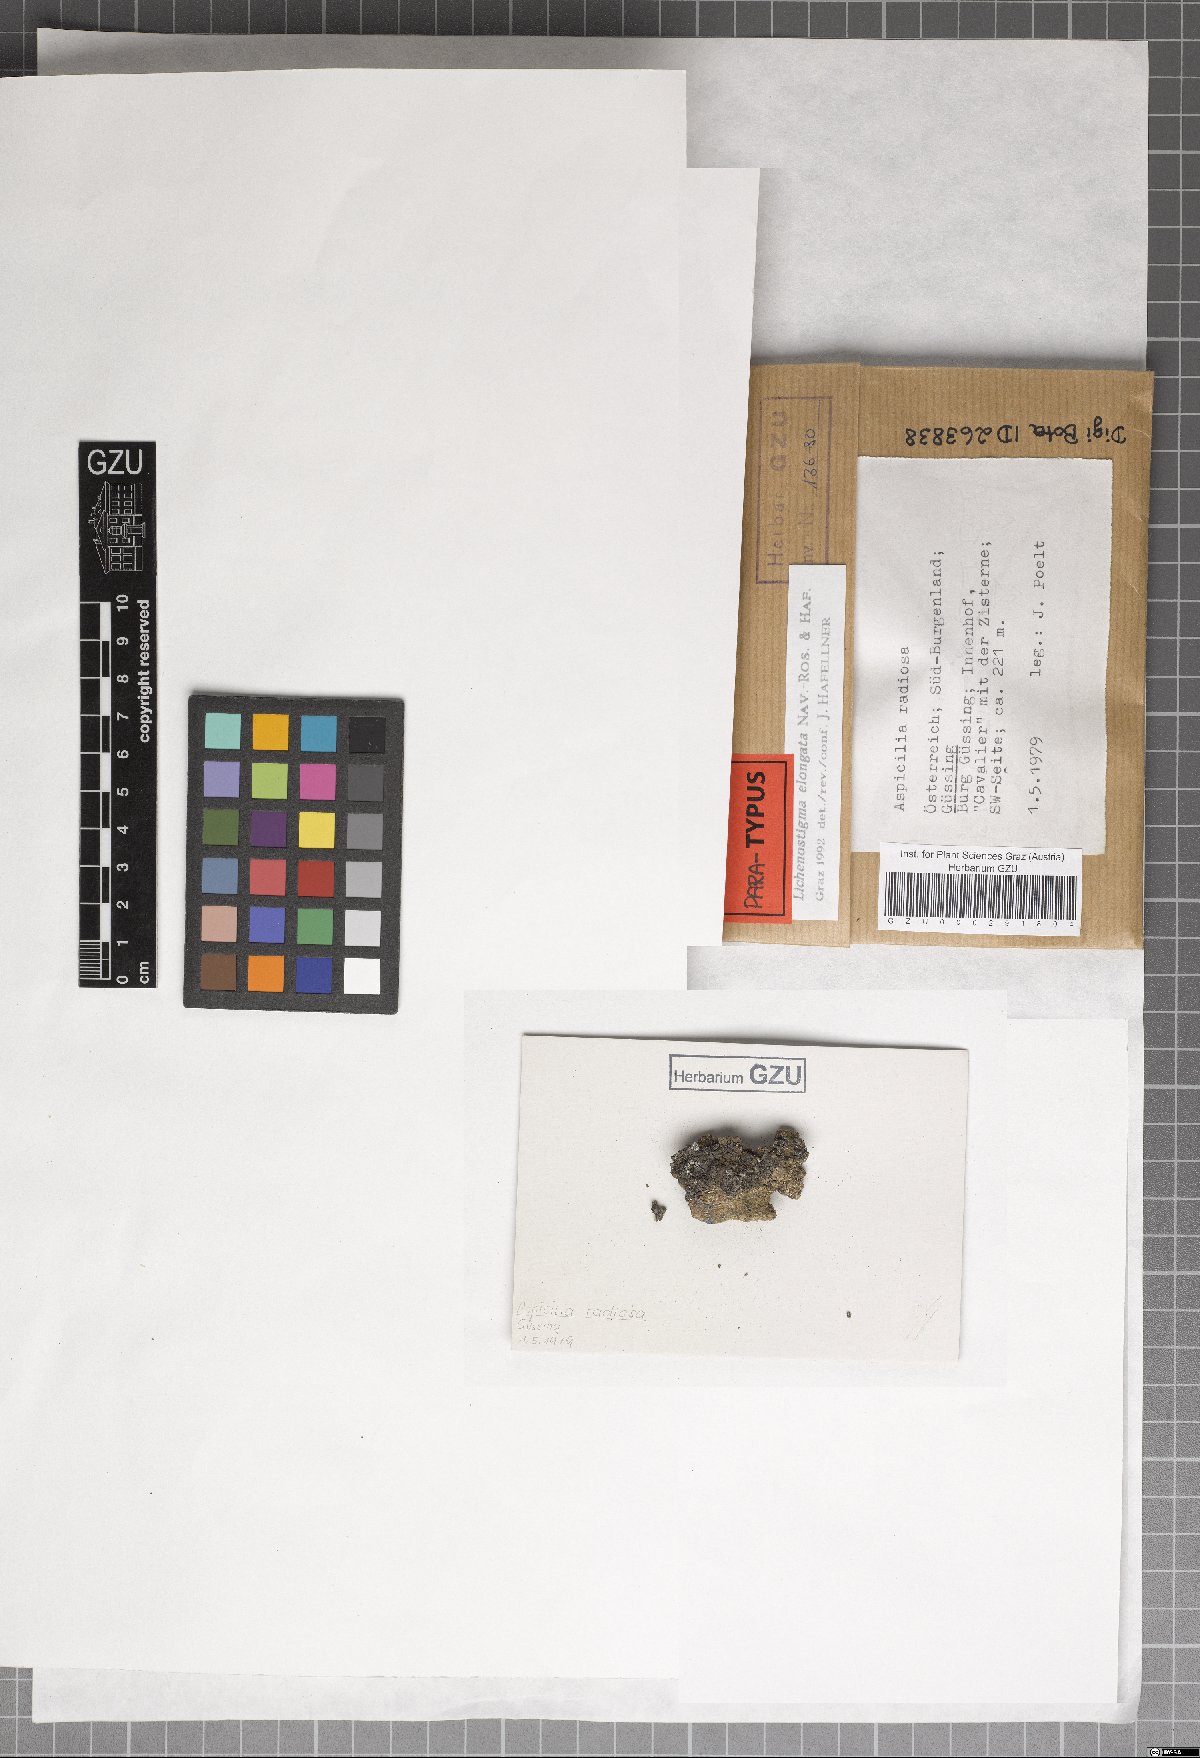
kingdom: Fungi
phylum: Ascomycota
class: Arthoniomycetes
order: Lichenostigmatales
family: Phaeococcomycetaceae
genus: Lichenostigma
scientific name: Lichenostigma elongatum
